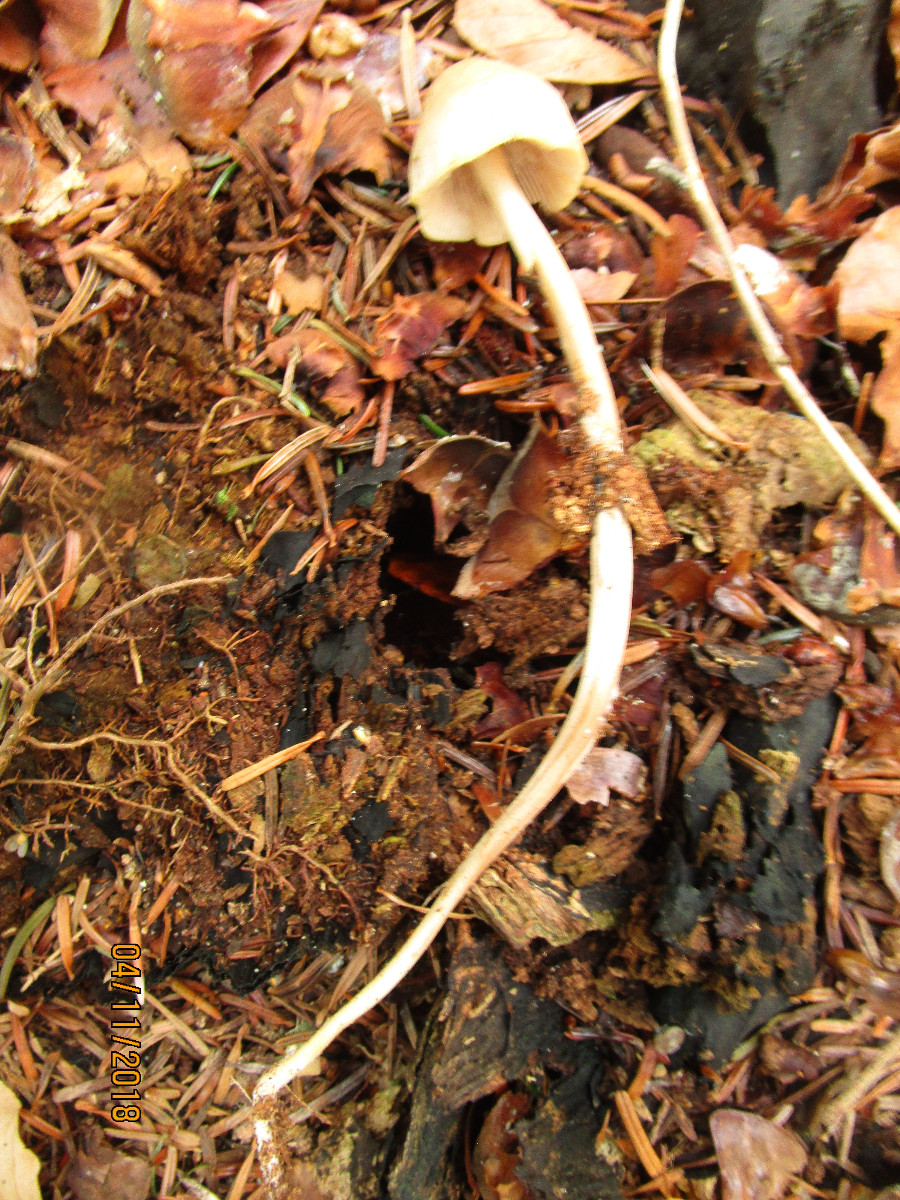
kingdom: Fungi
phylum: Basidiomycota
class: Agaricomycetes
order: Agaricales
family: Mycenaceae
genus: Mycena
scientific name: Mycena galericulata
